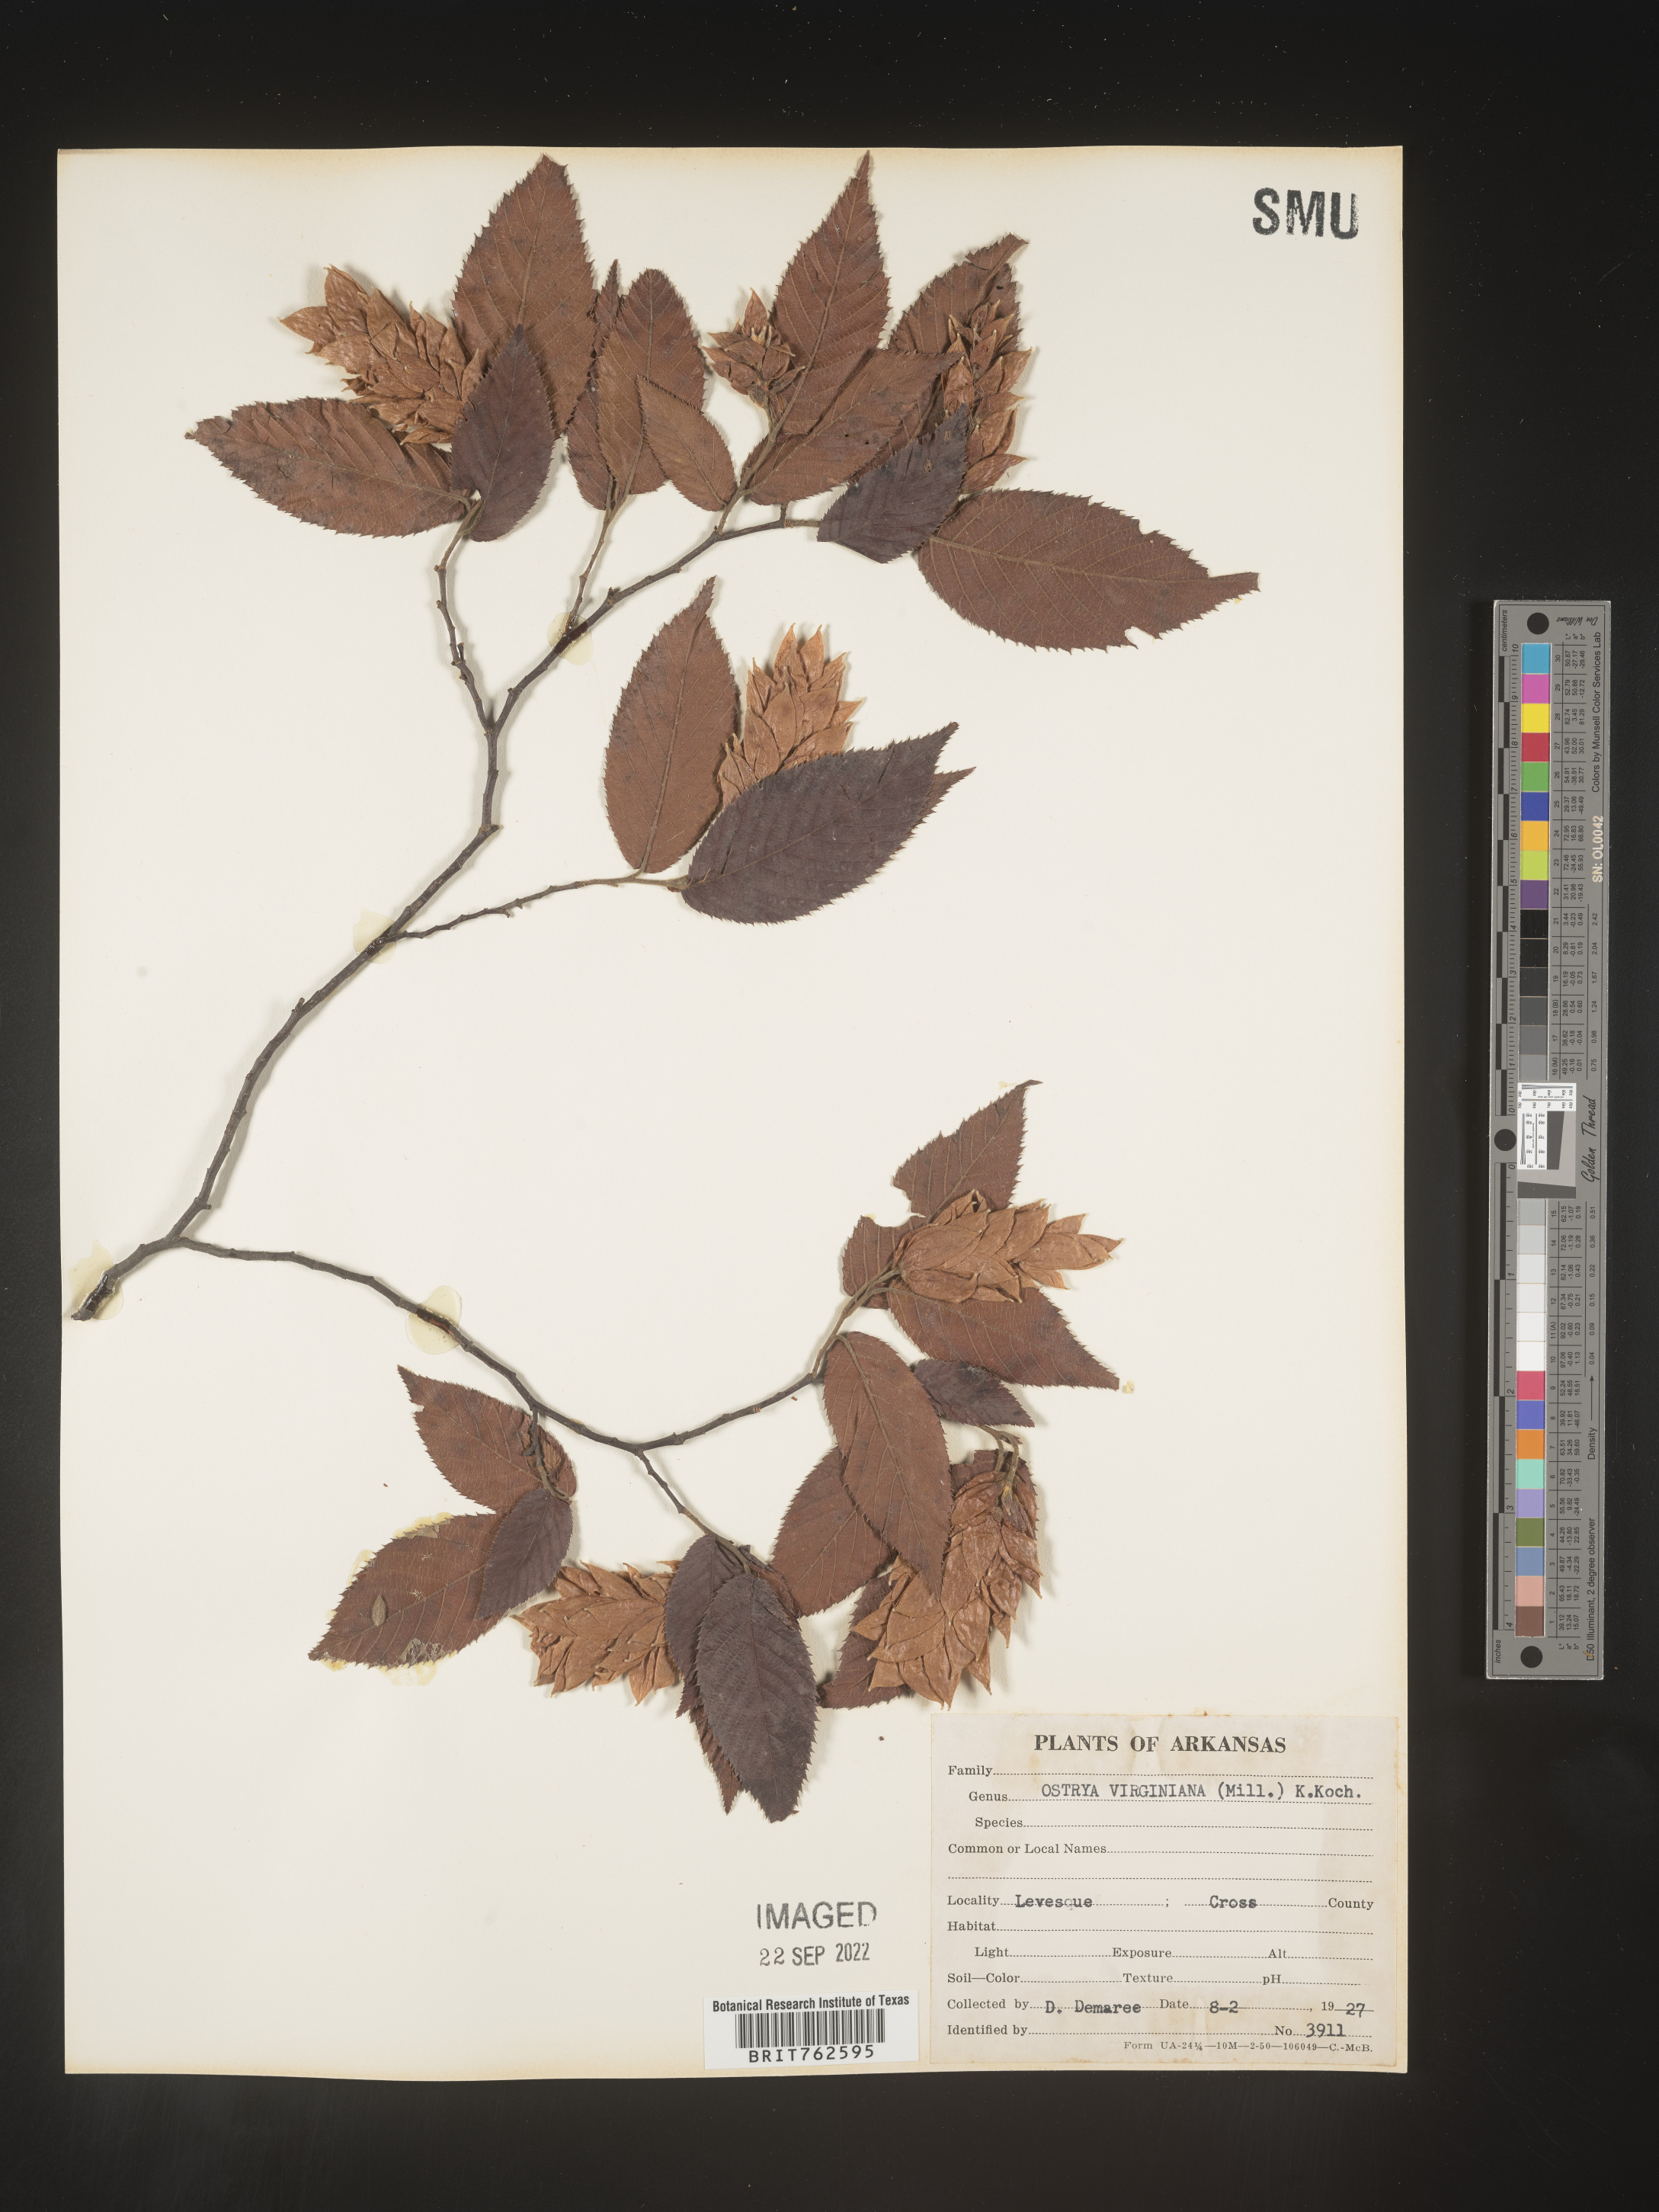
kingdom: Plantae
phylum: Tracheophyta
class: Magnoliopsida
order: Fagales
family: Betulaceae
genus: Ostrya
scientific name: Ostrya virginiana
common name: Ironwood
